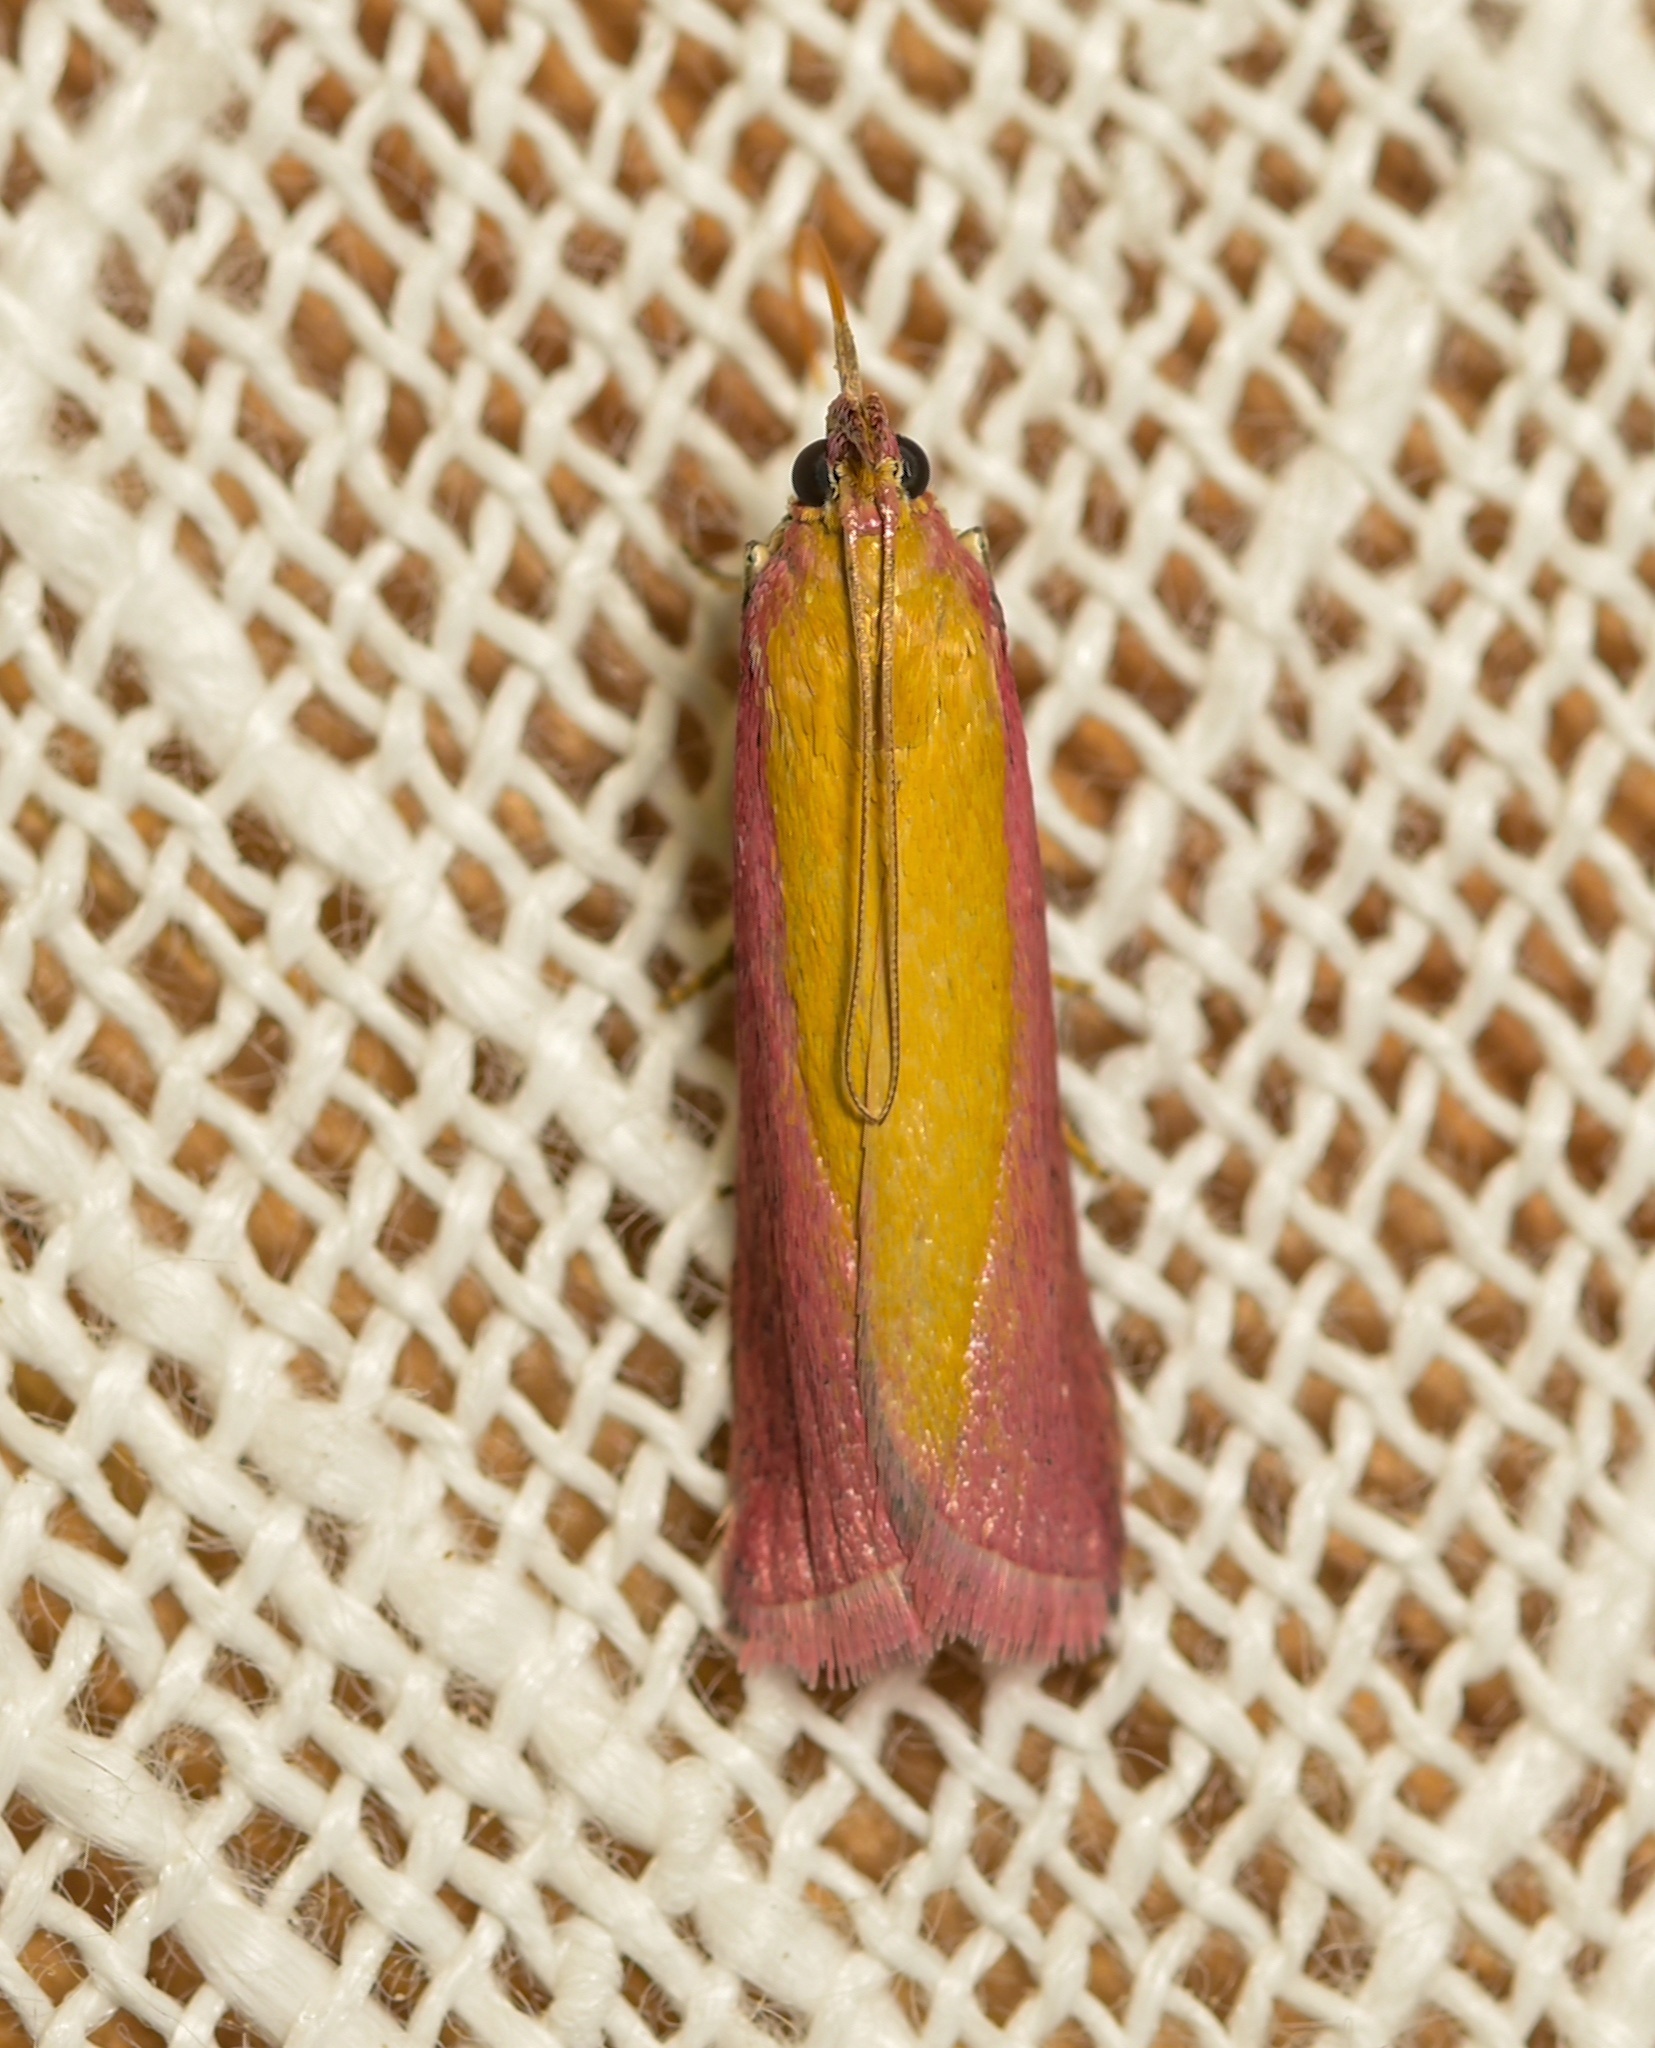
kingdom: Animalia
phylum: Arthropoda
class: Insecta
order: Lepidoptera
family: Pyralidae
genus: Oncocera
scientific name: Oncocera semirubella
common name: Rosy-striped knot-horn
